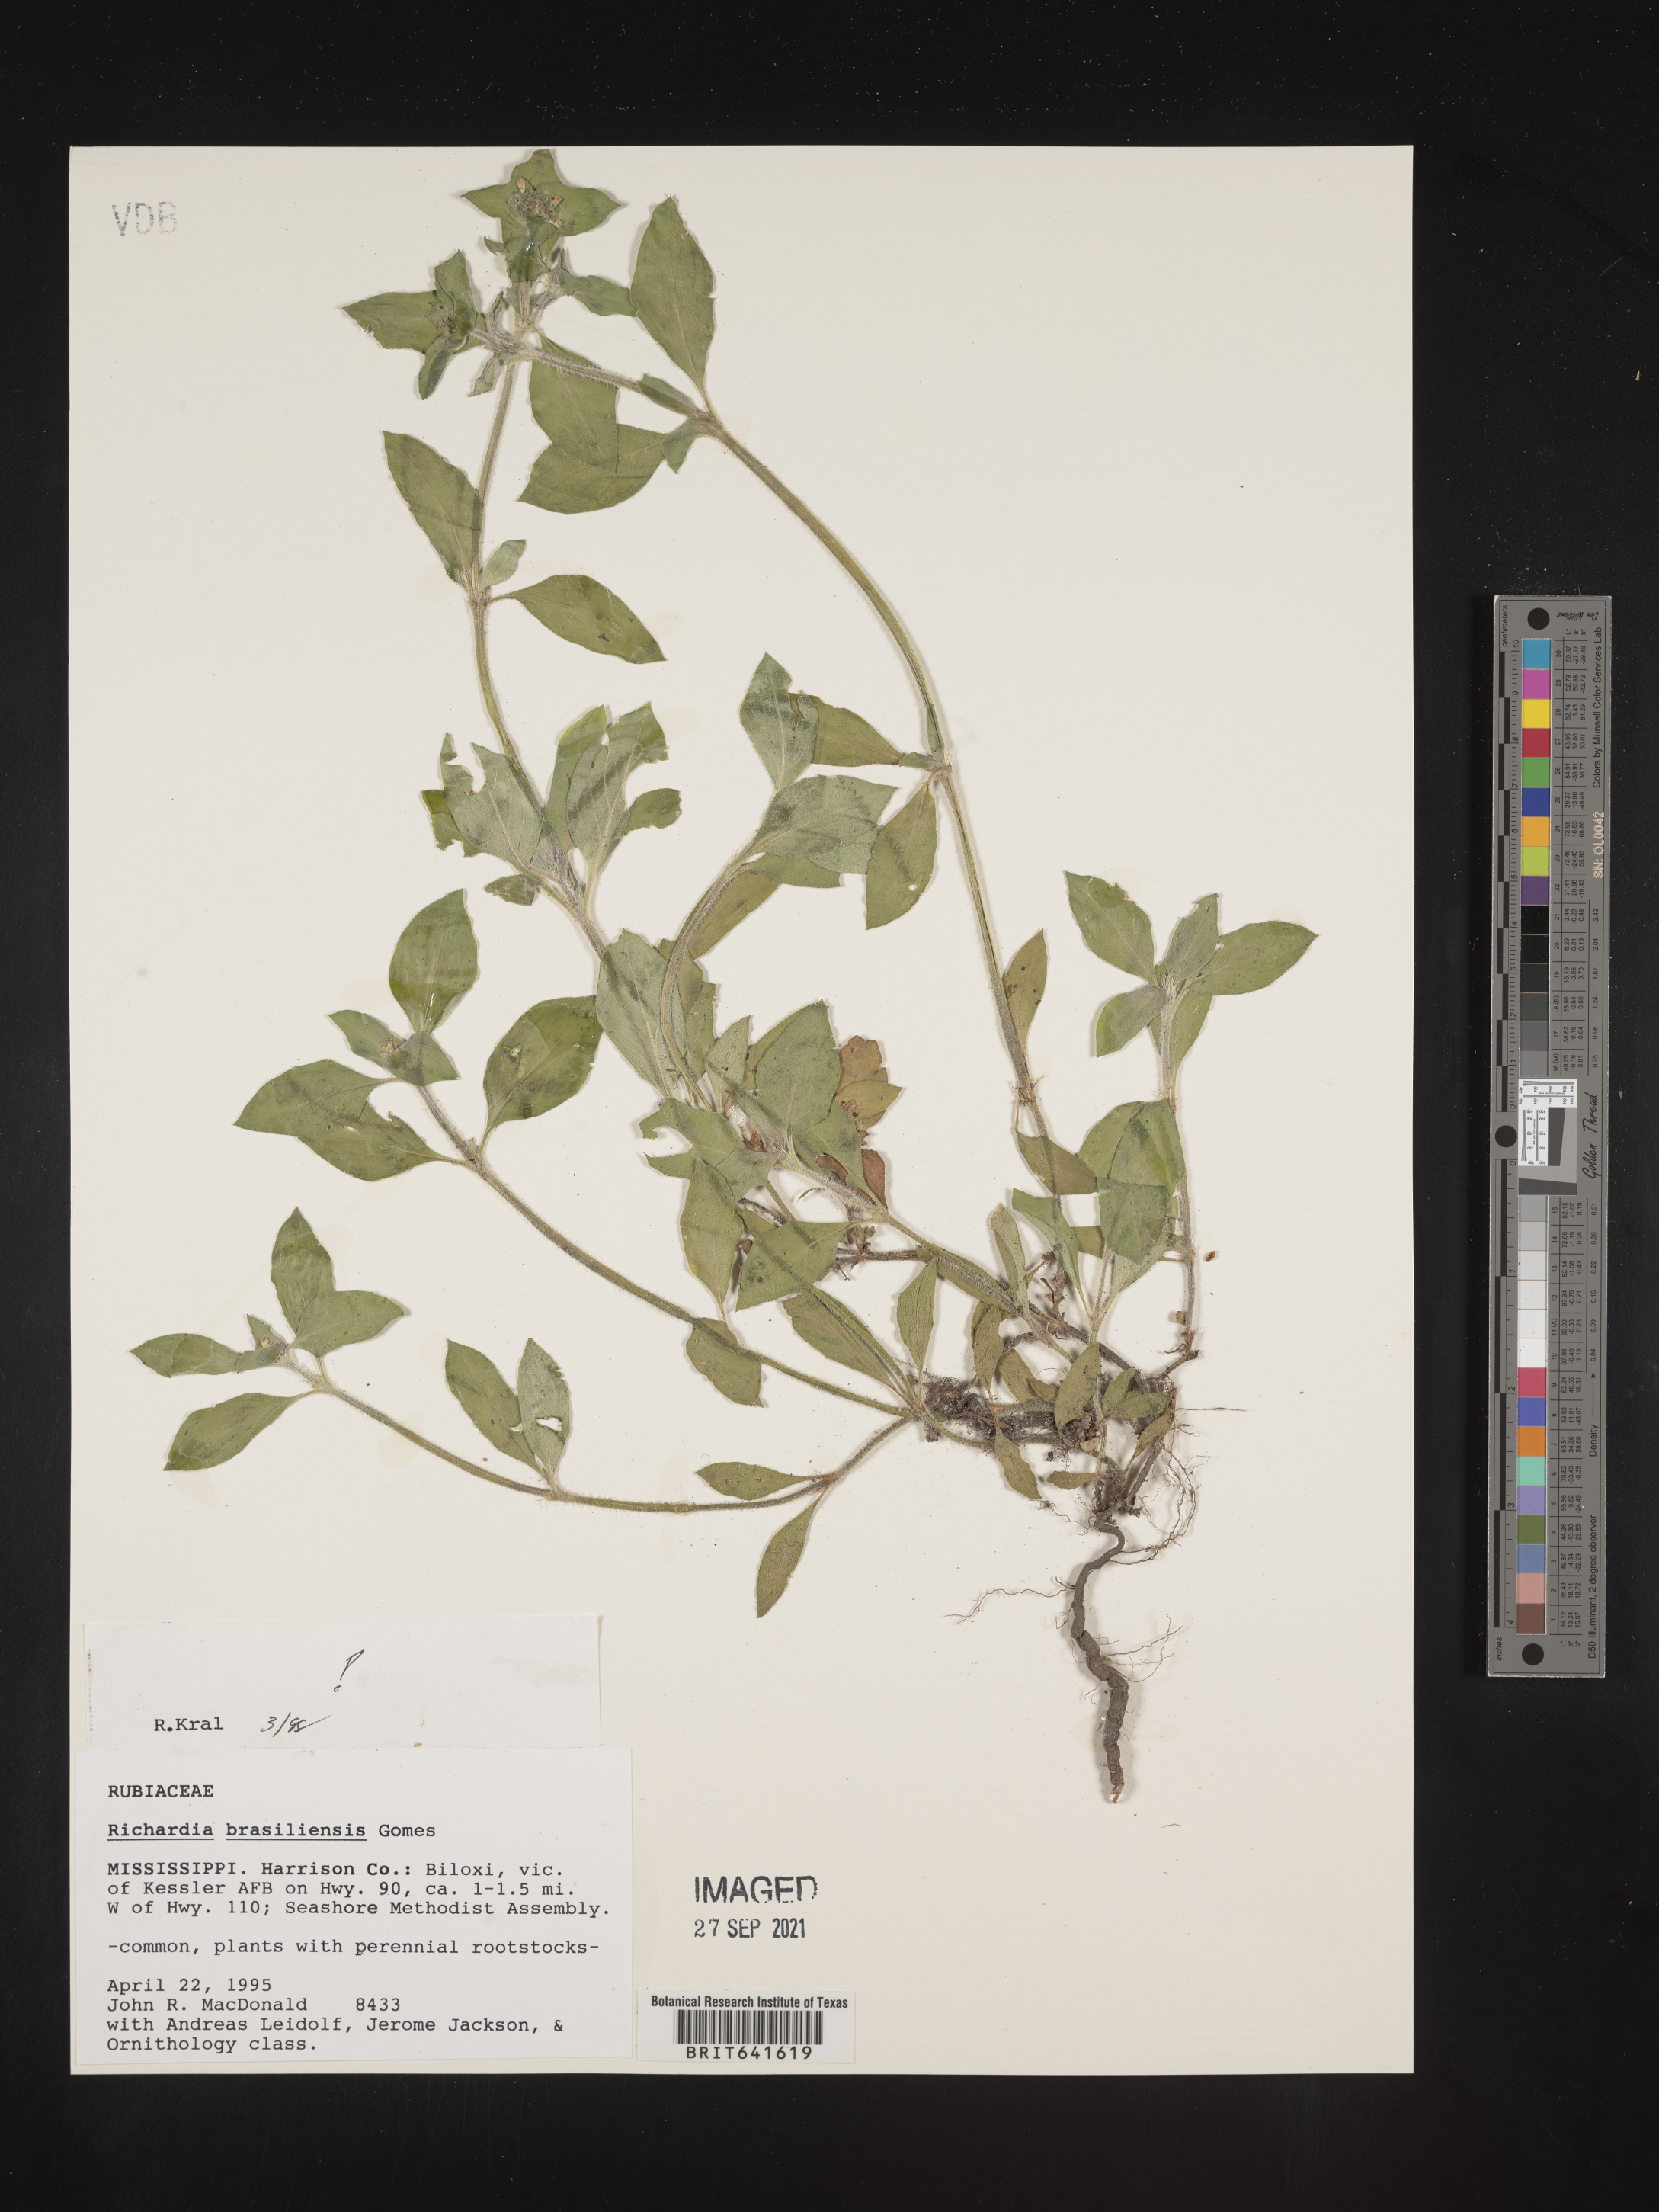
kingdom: Plantae
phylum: Tracheophyta
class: Magnoliopsida
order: Gentianales
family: Rubiaceae
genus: Richardia
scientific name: Richardia brasiliensis
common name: Tropical mexican clover
